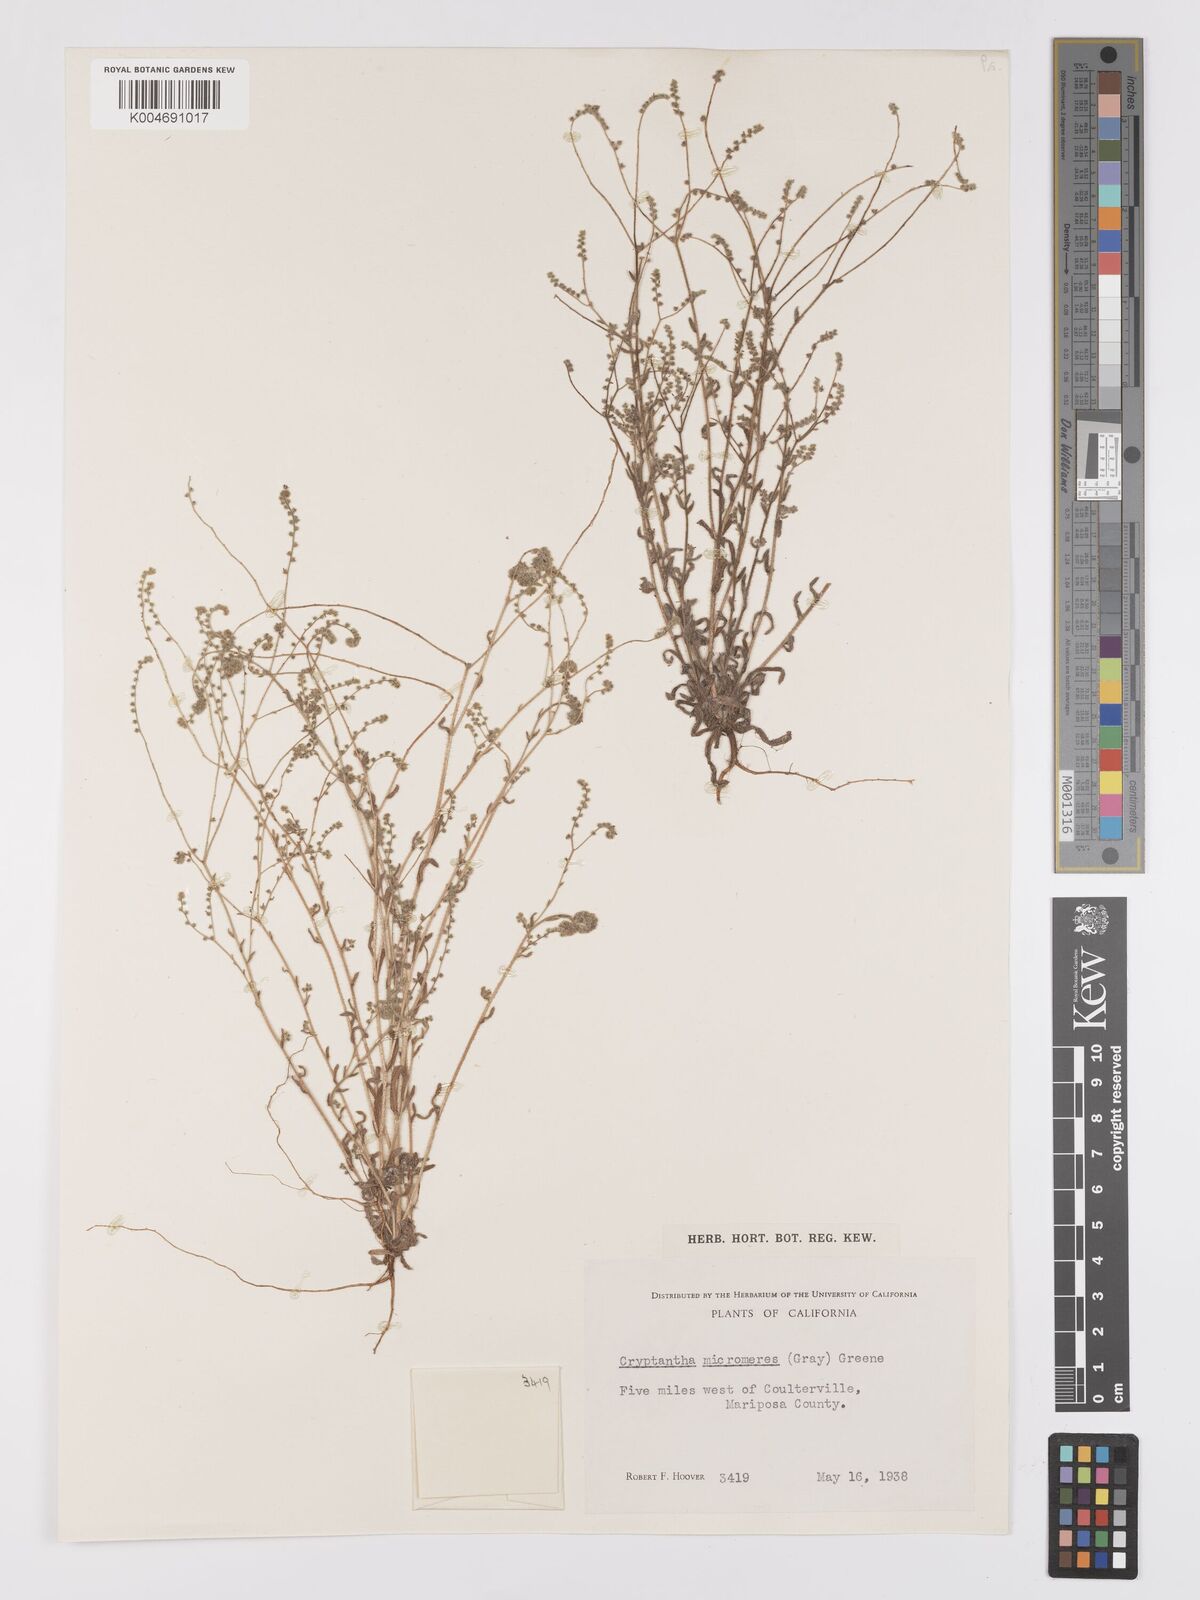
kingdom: Plantae
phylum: Tracheophyta
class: Magnoliopsida
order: Boraginales
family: Boraginaceae
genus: Johnstonella
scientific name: Johnstonella micromeres
